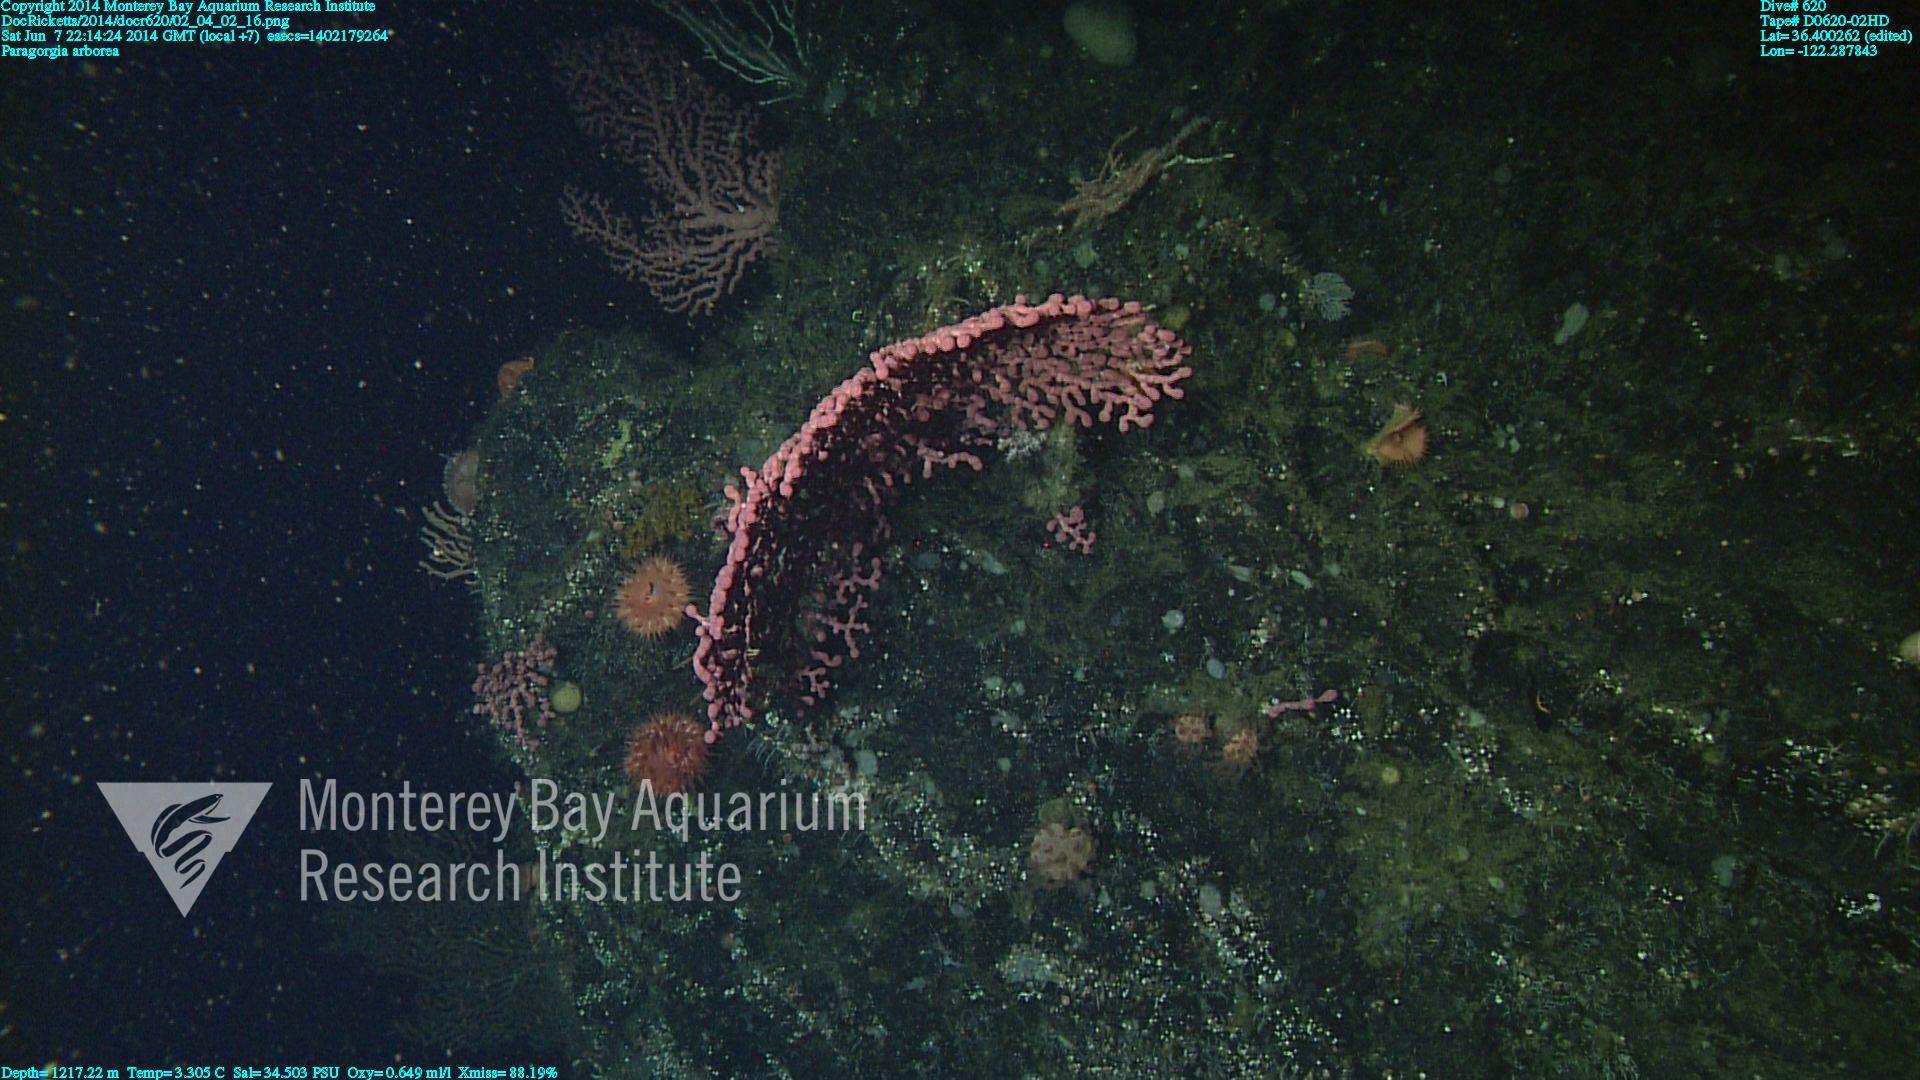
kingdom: Animalia
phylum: Cnidaria
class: Anthozoa
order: Scleralcyonacea
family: Coralliidae
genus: Paragorgia
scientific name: Paragorgia arborea
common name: Bubble gum coral
